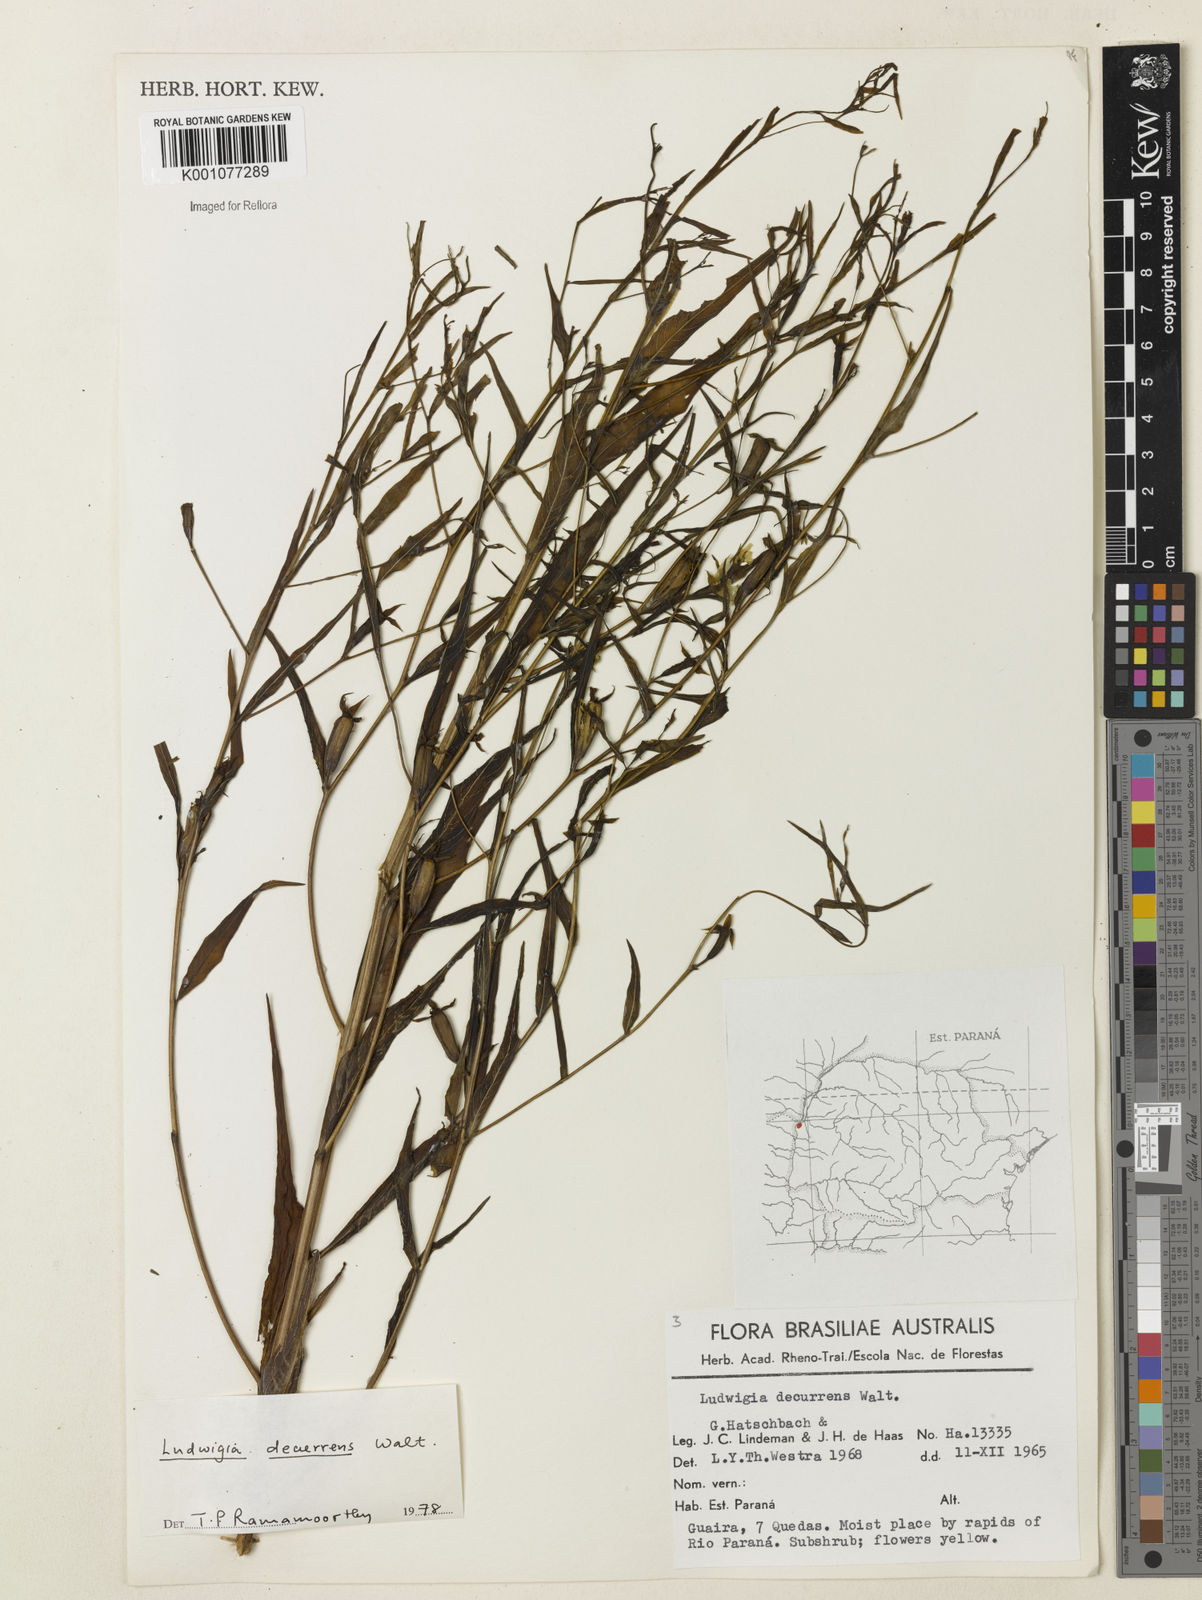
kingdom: Plantae
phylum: Tracheophyta
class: Magnoliopsida
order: Myrtales
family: Onagraceae
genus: Ludwigia
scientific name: Ludwigia decurrens
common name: Winged water-primrose
